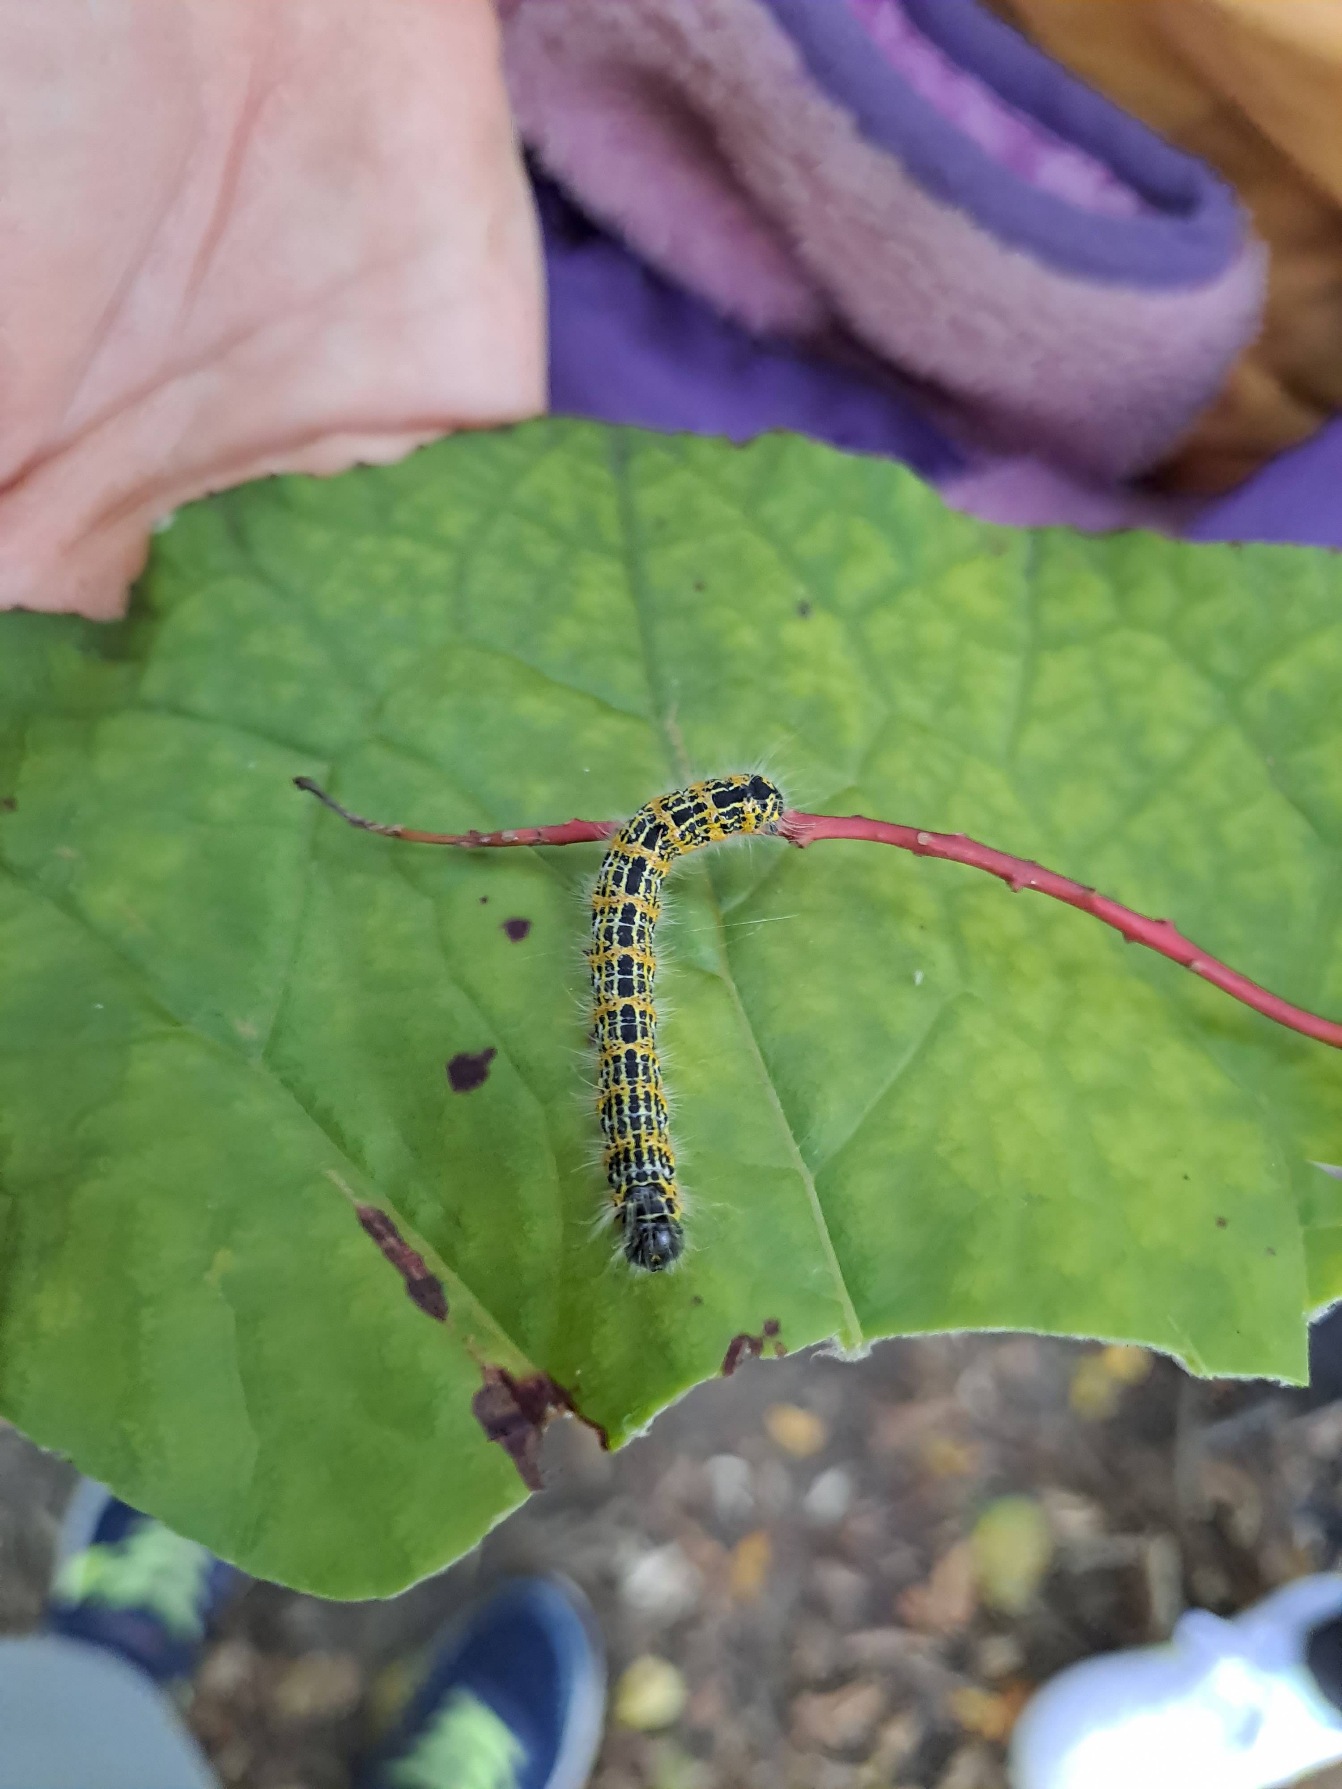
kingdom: Animalia
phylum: Arthropoda
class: Insecta
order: Lepidoptera
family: Notodontidae
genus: Phalera
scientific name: Phalera bucephala
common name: Måneplet
